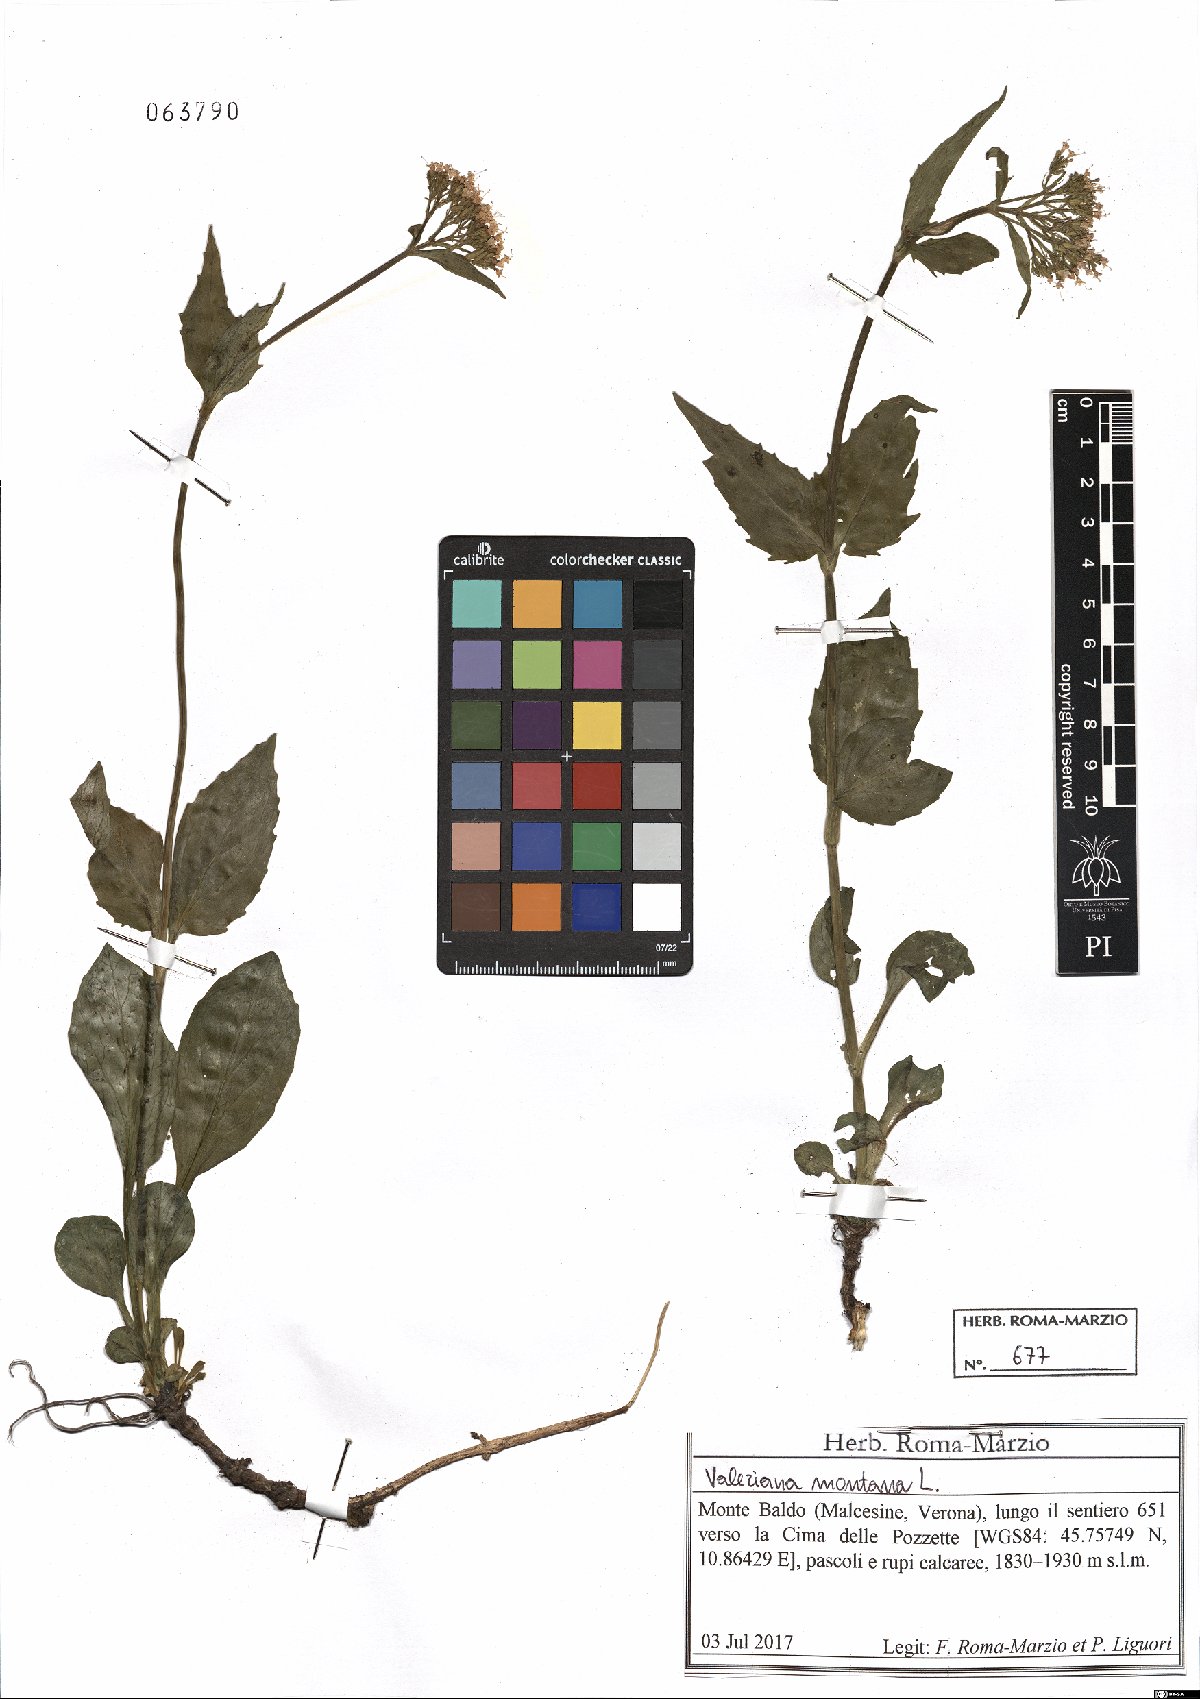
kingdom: Plantae
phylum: Tracheophyta
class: Magnoliopsida
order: Dipsacales
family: Caprifoliaceae
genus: Valeriana
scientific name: Valeriana montana
